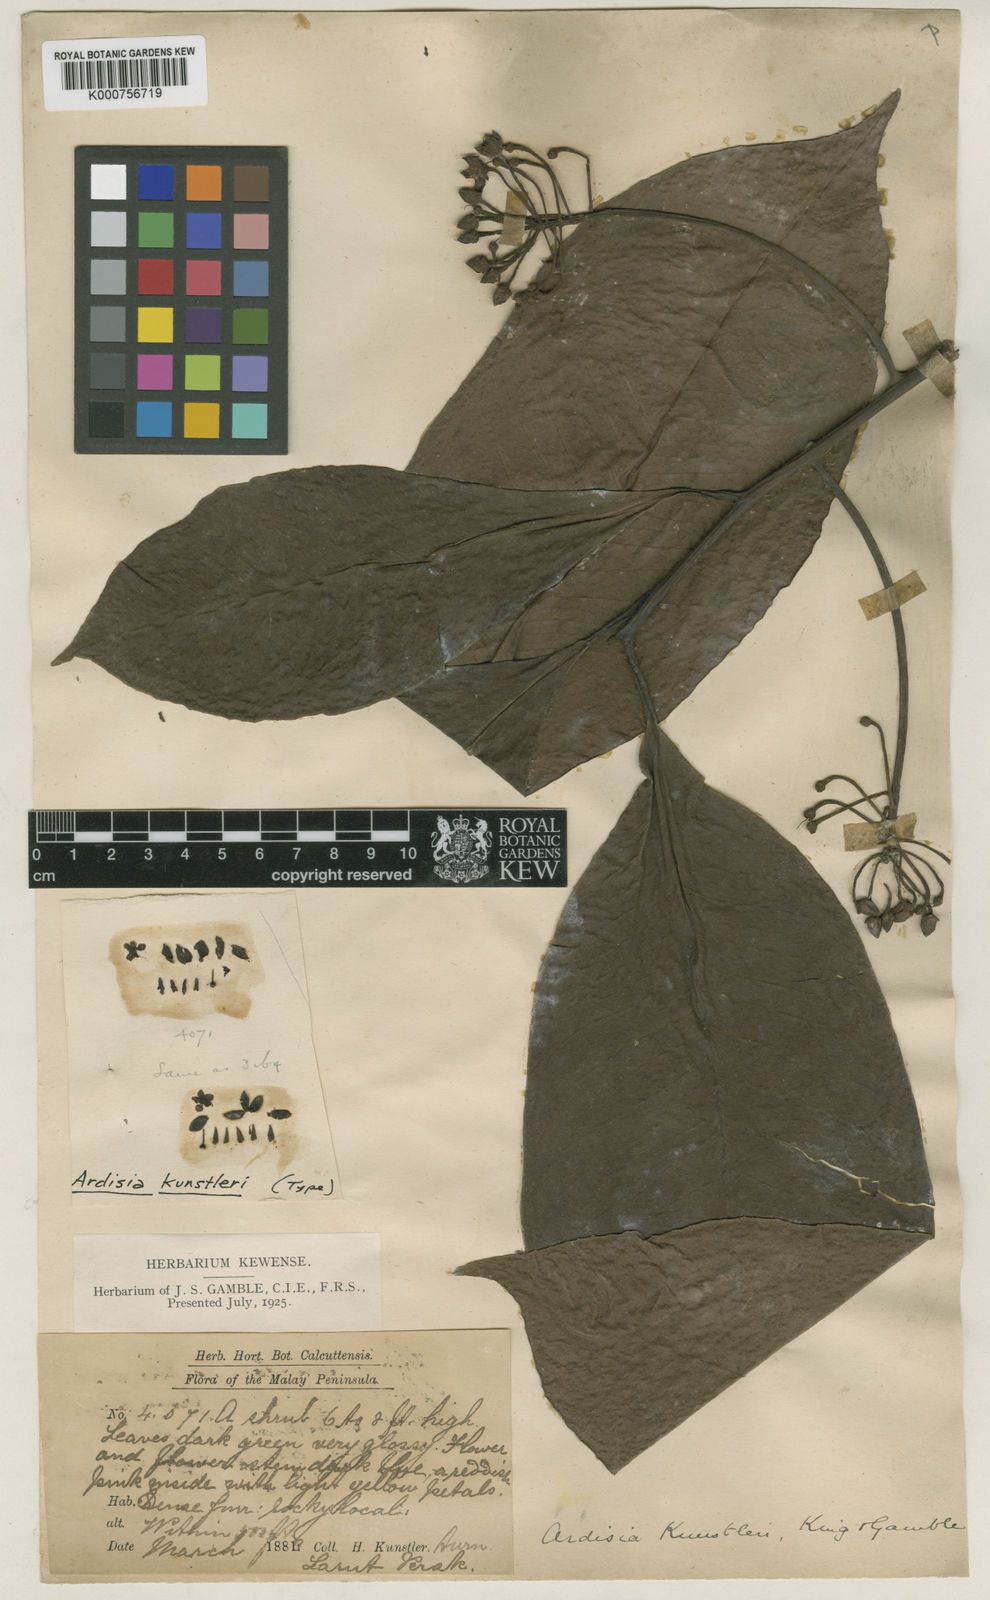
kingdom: Plantae
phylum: Tracheophyta
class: Magnoliopsida
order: Ericales
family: Primulaceae
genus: Ardisia
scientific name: Ardisia kunstleri
